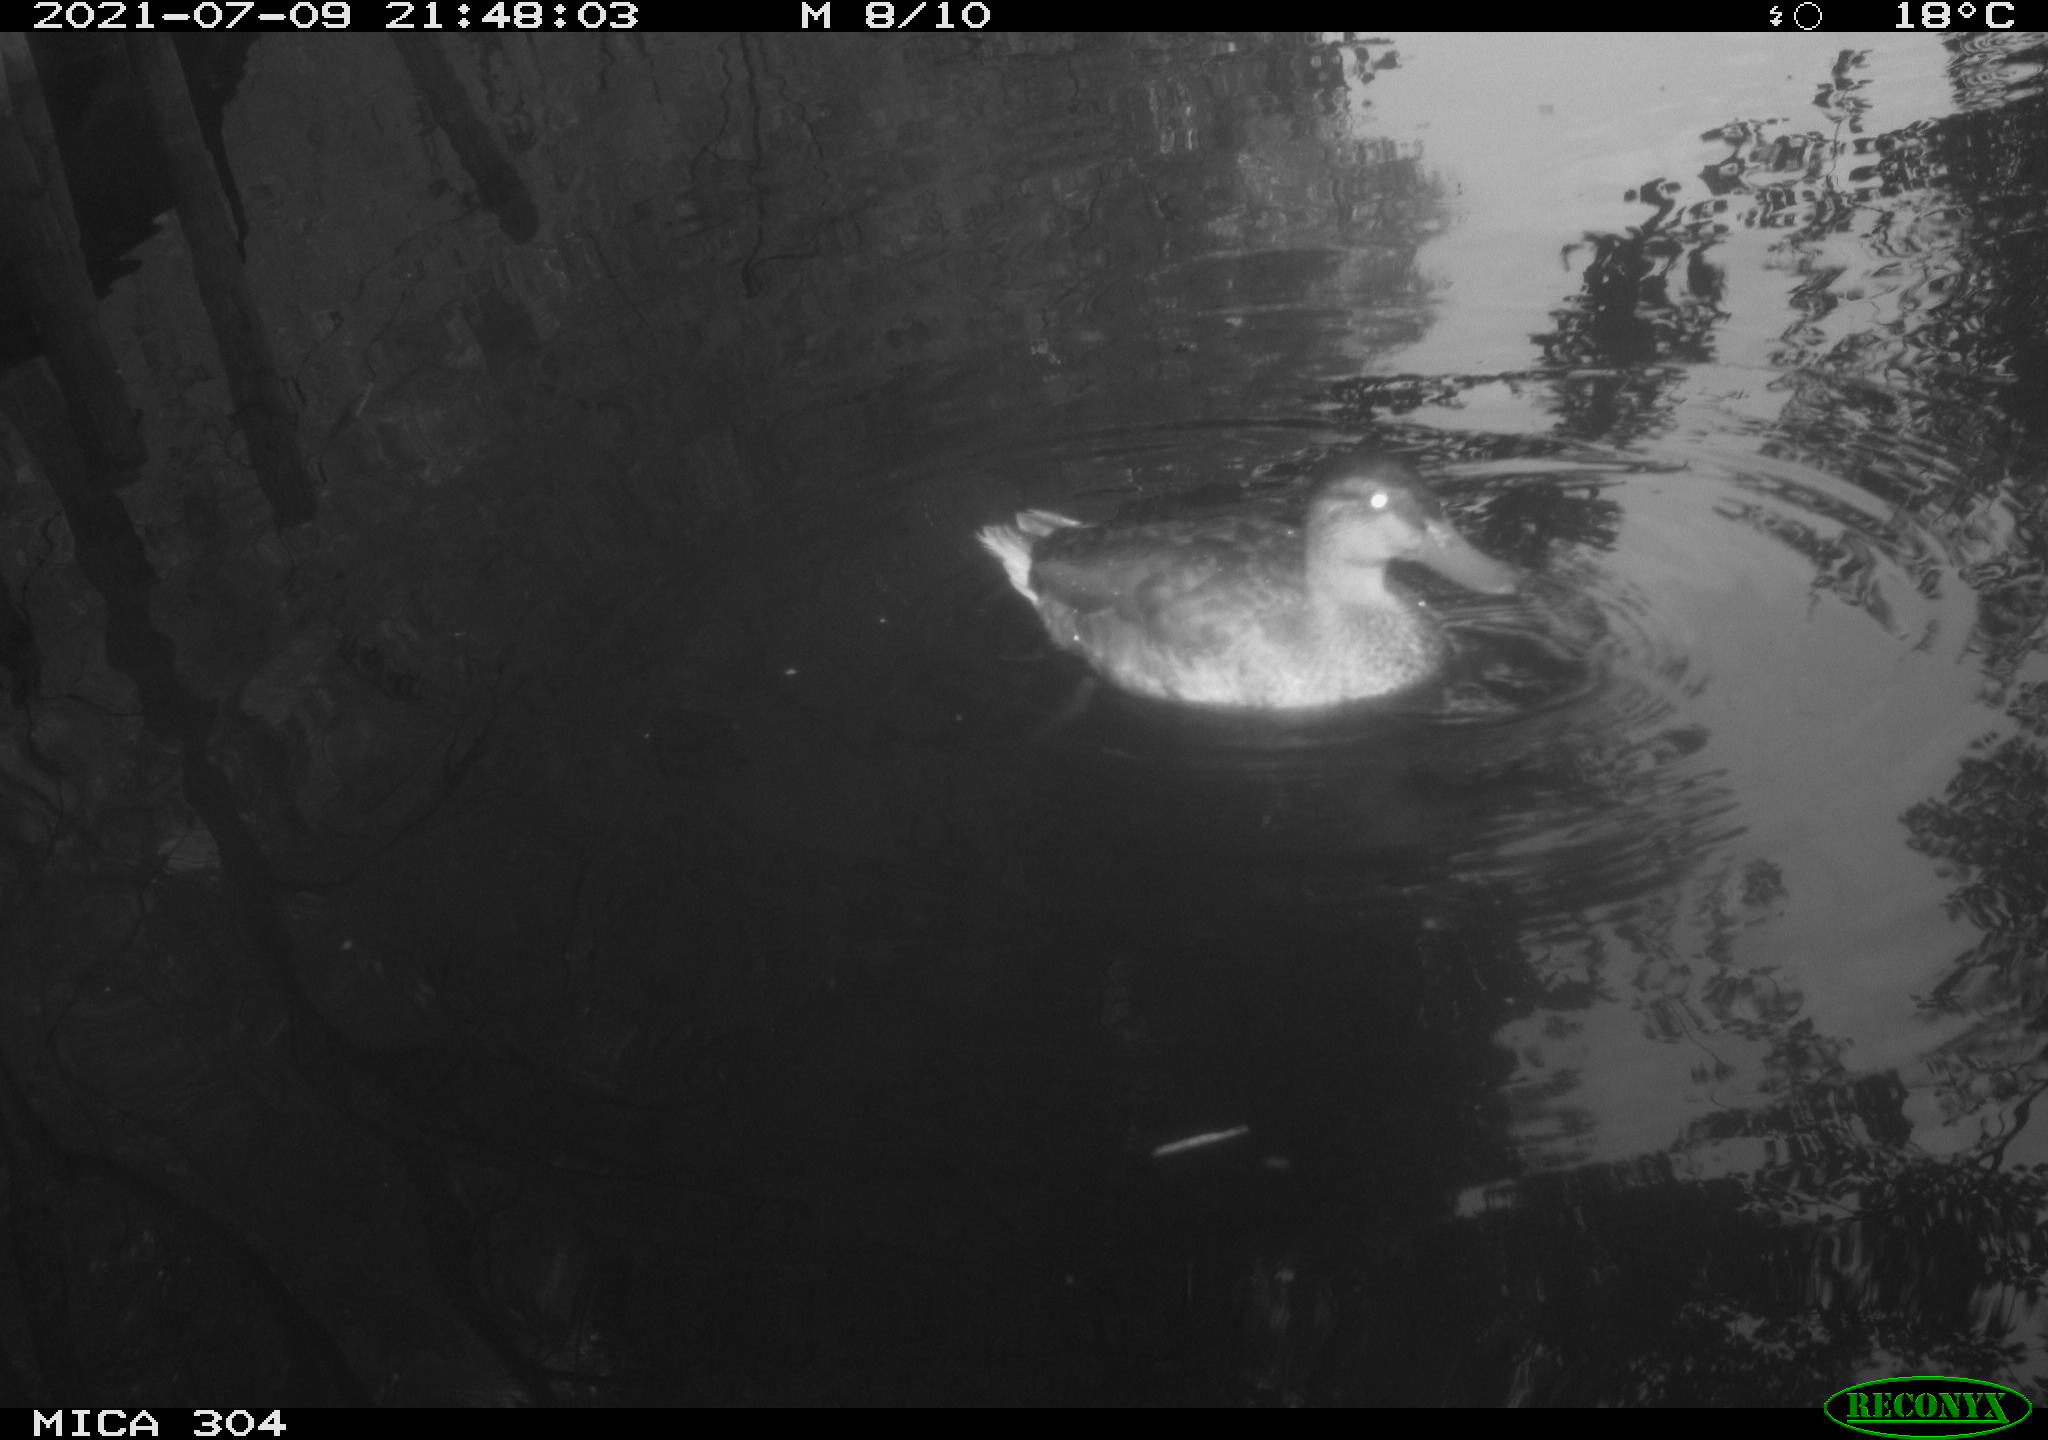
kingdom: Animalia
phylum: Chordata
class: Aves
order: Anseriformes
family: Anatidae
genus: Anas
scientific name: Anas platyrhynchos
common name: Mallard
